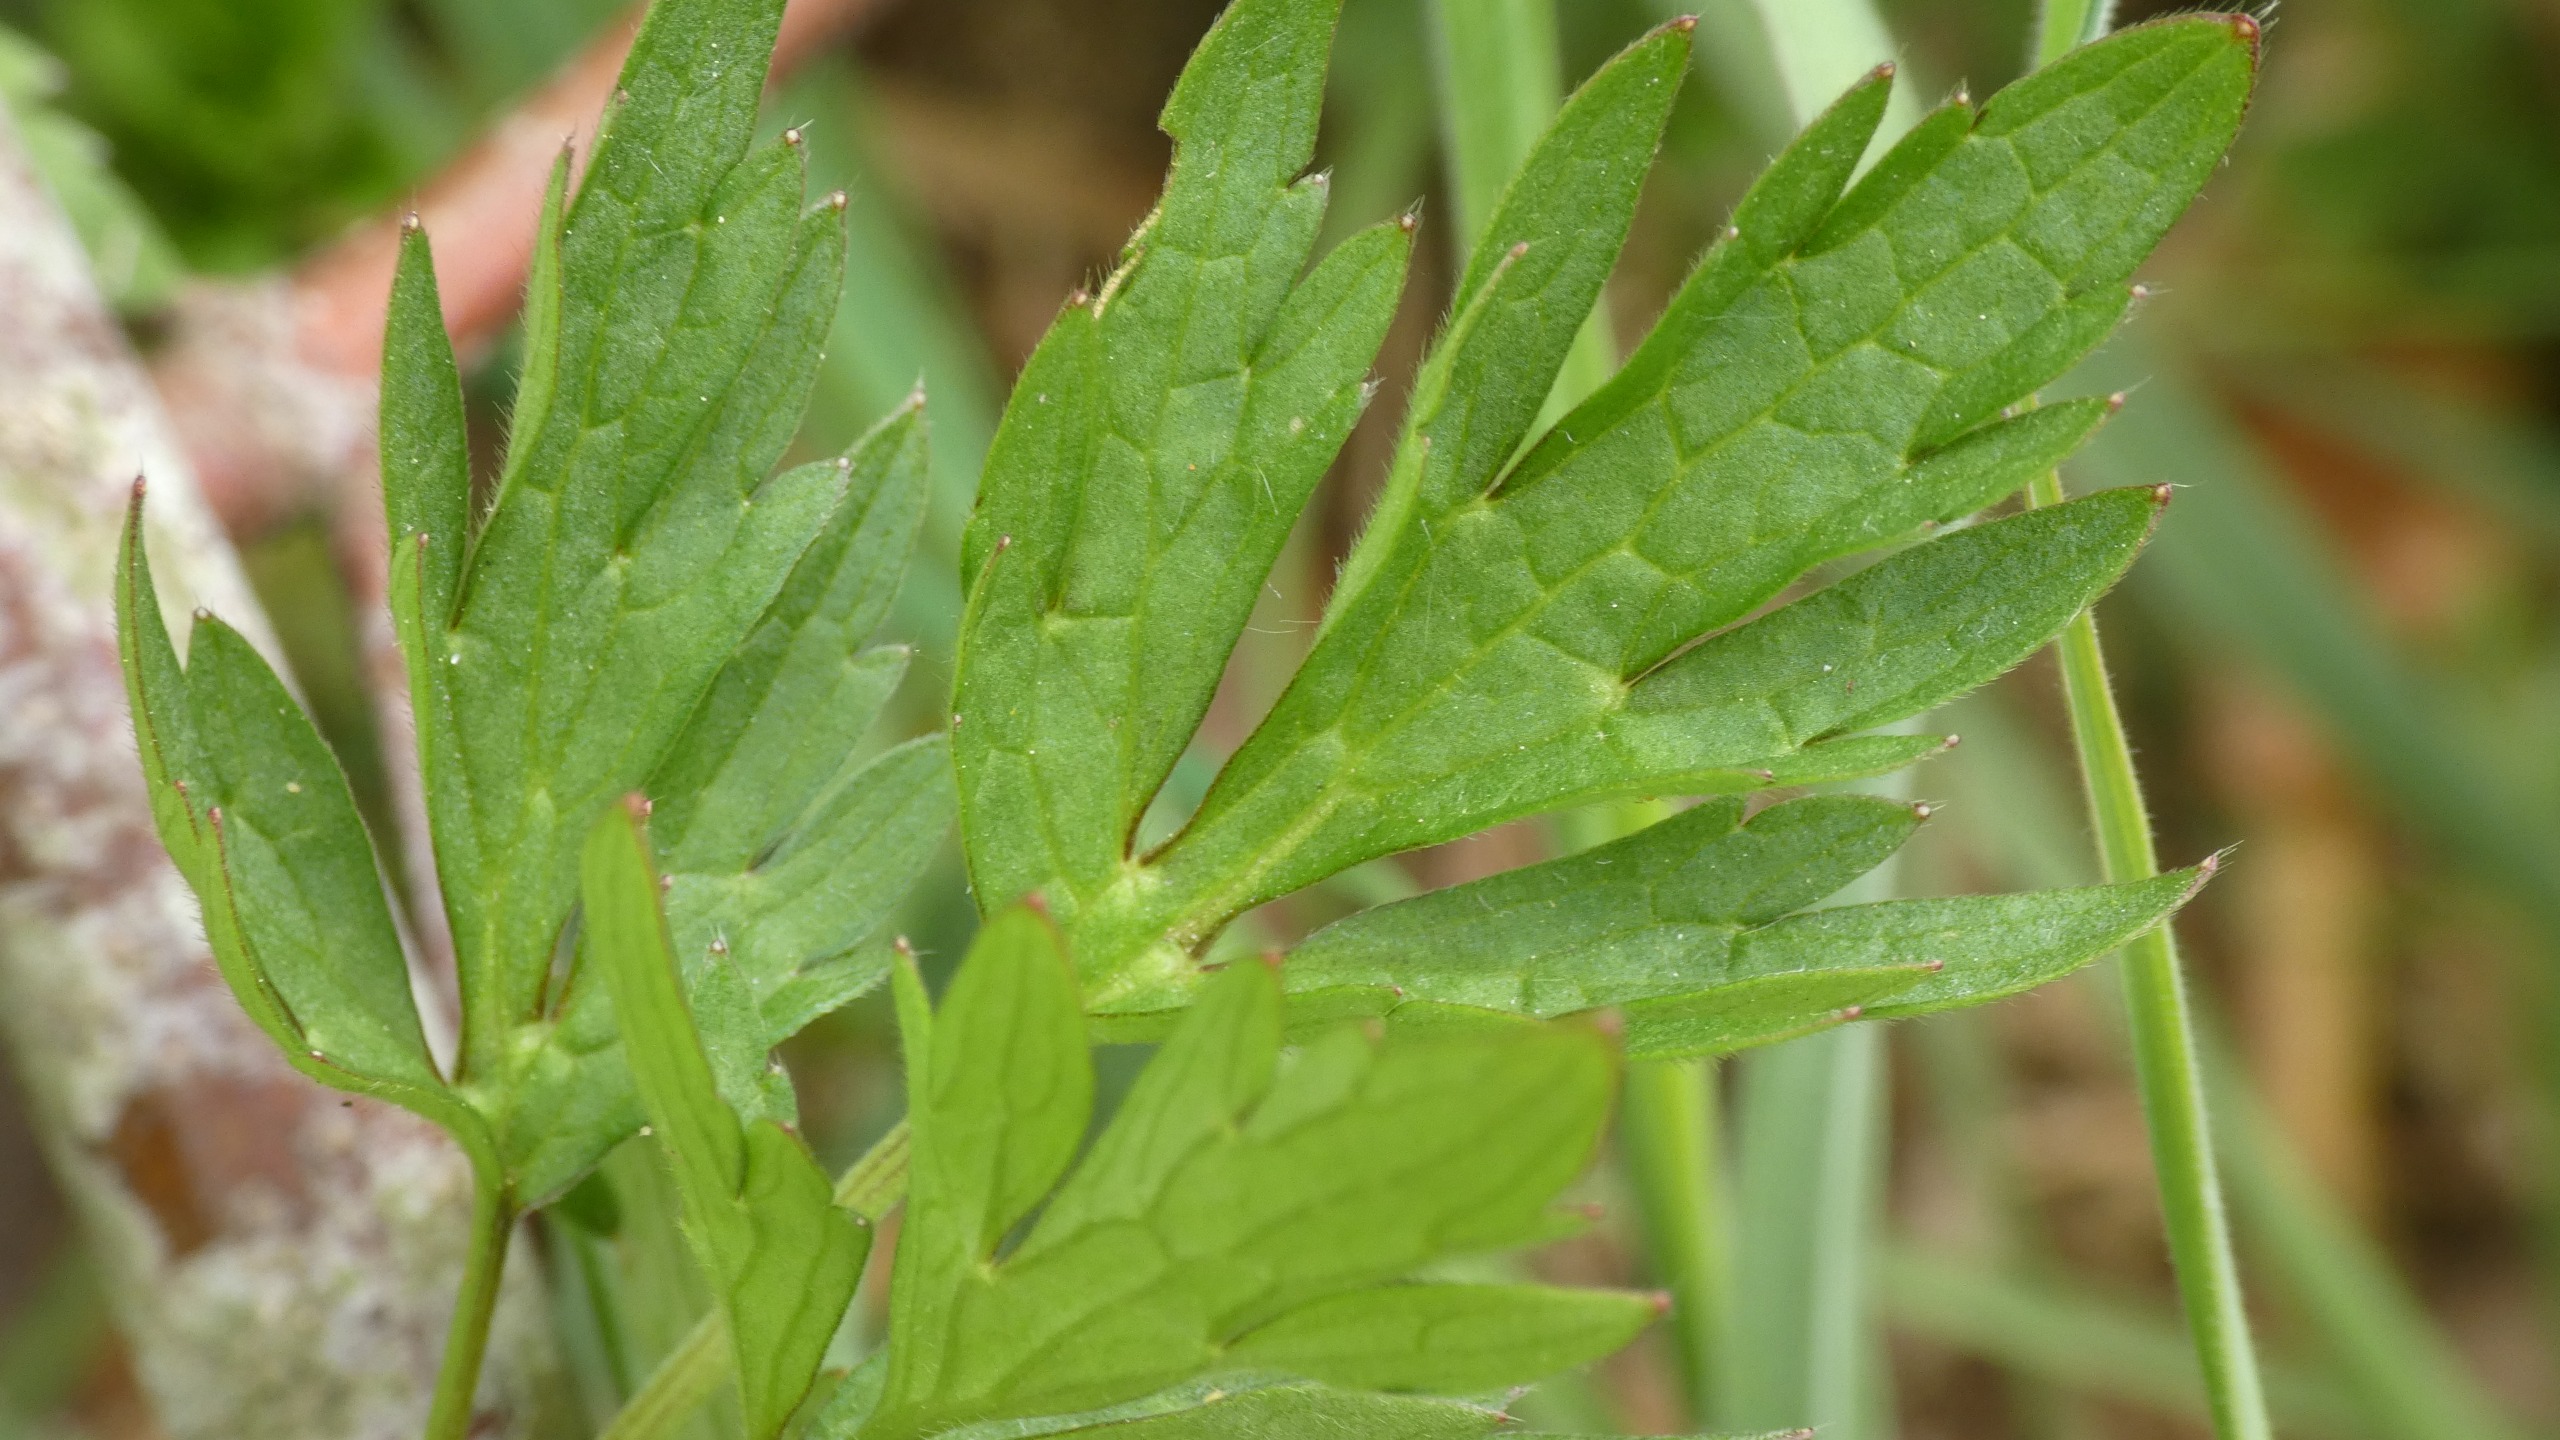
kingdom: Plantae
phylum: Tracheophyta
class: Magnoliopsida
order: Ranunculales
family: Ranunculaceae
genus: Ranunculus
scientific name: Ranunculus repens
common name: Lav ranunkel
